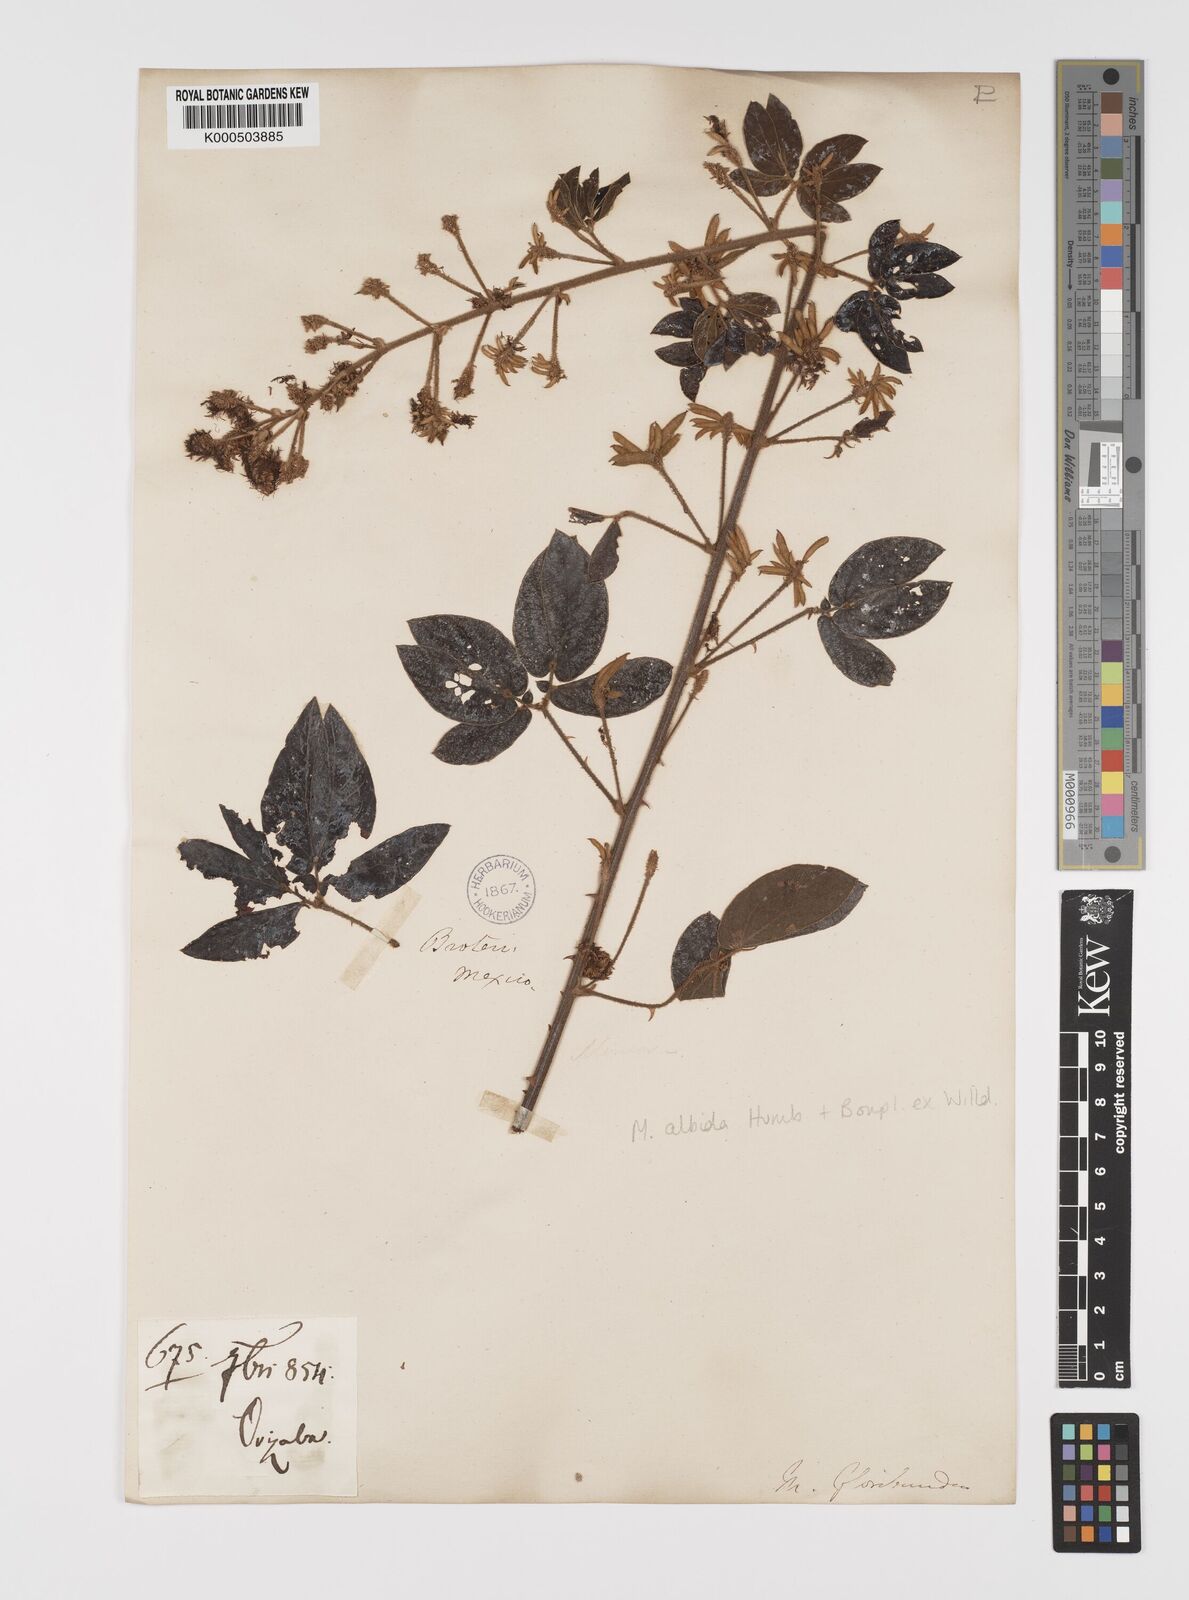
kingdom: Plantae
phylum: Tracheophyta
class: Magnoliopsida
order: Fabales
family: Fabaceae
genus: Mimosa
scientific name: Mimosa albida
